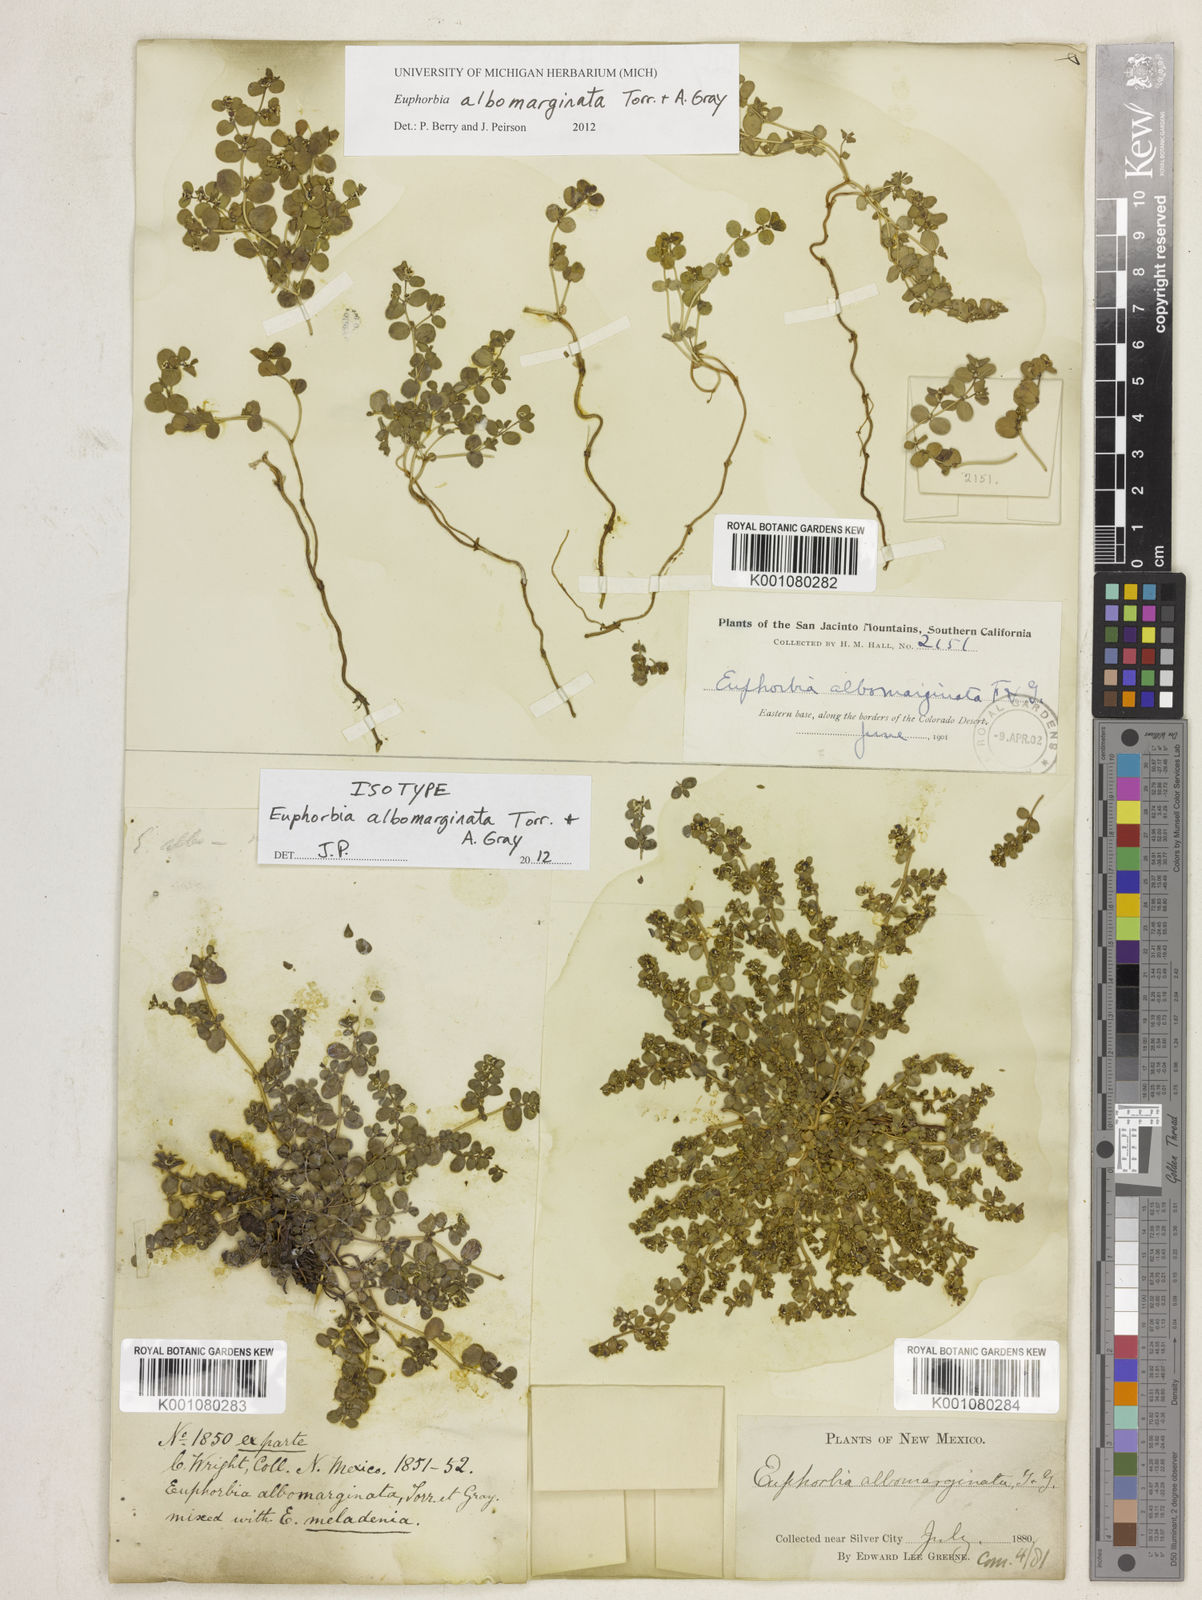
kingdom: Plantae
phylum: Tracheophyta
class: Magnoliopsida
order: Malpighiales
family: Euphorbiaceae
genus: Euphorbia
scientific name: Euphorbia albomarginata
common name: Whitemargin sandmat
